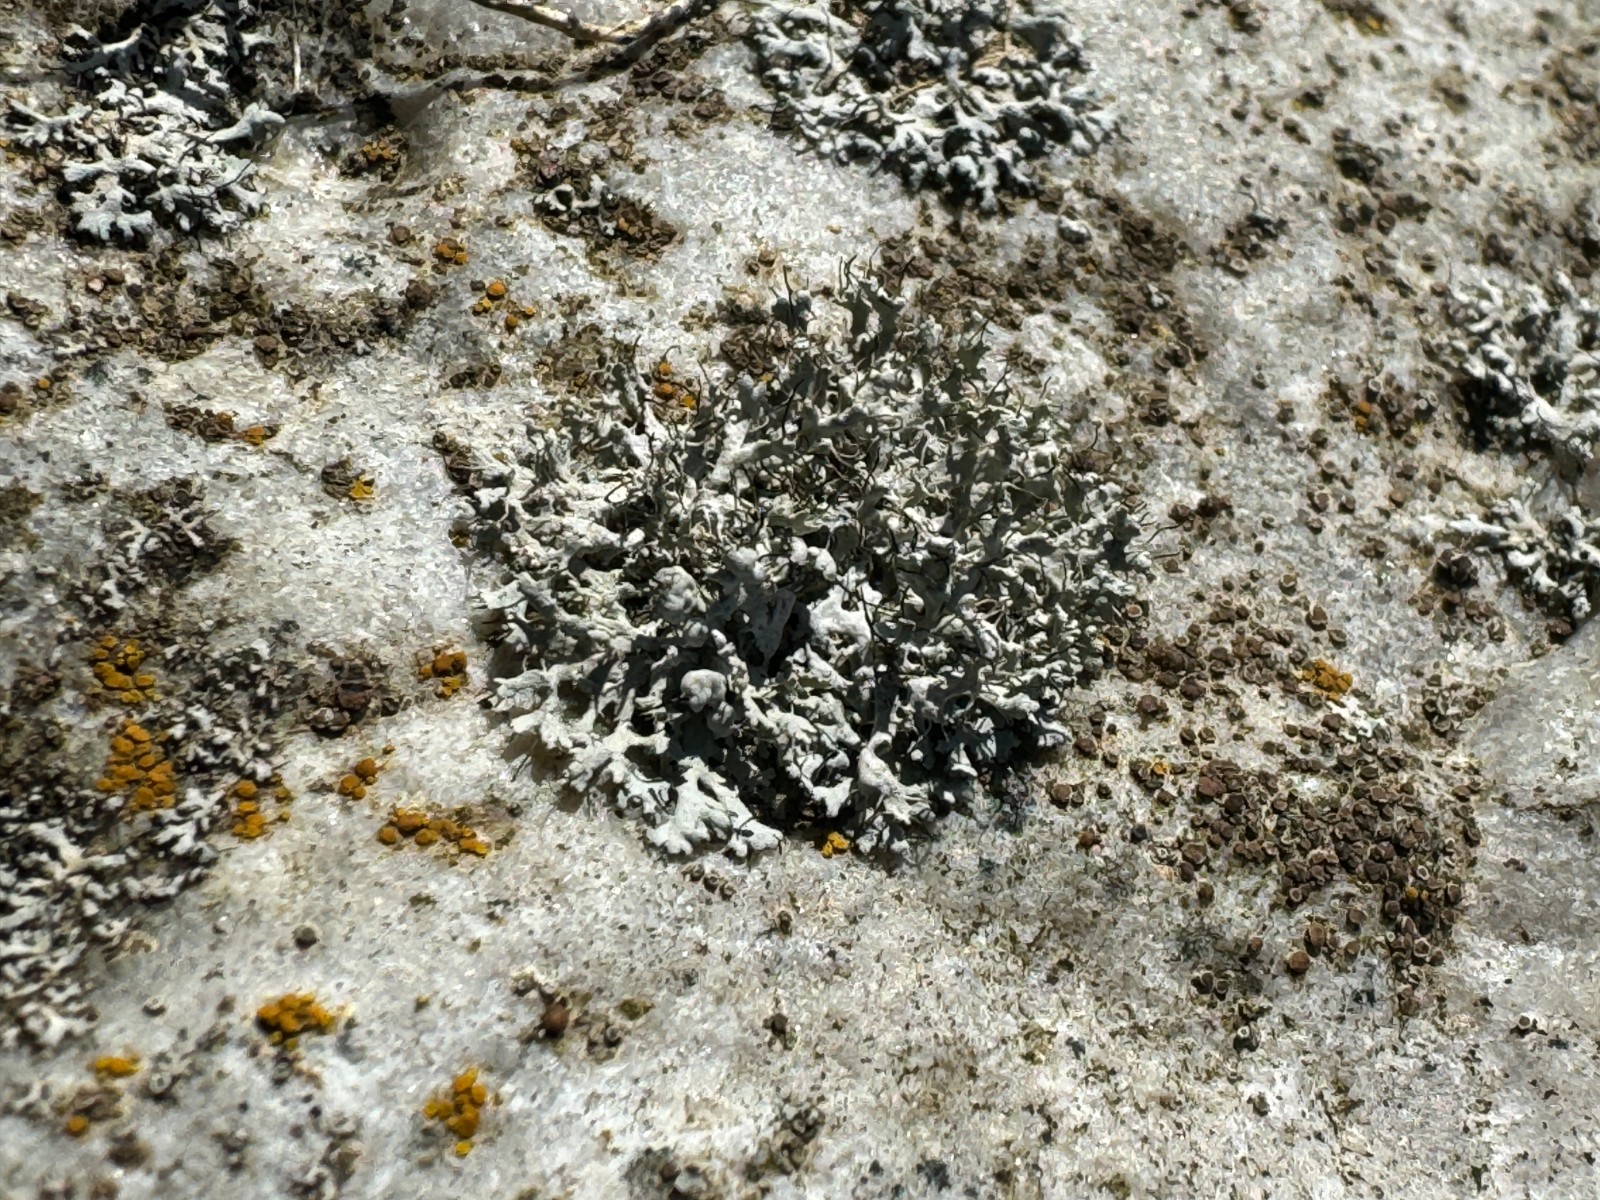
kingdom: Fungi
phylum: Ascomycota
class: Lecanoromycetes
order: Caliciales
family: Physciaceae
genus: Physcia
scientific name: Physcia adscendens
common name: hætte-rosetlav
